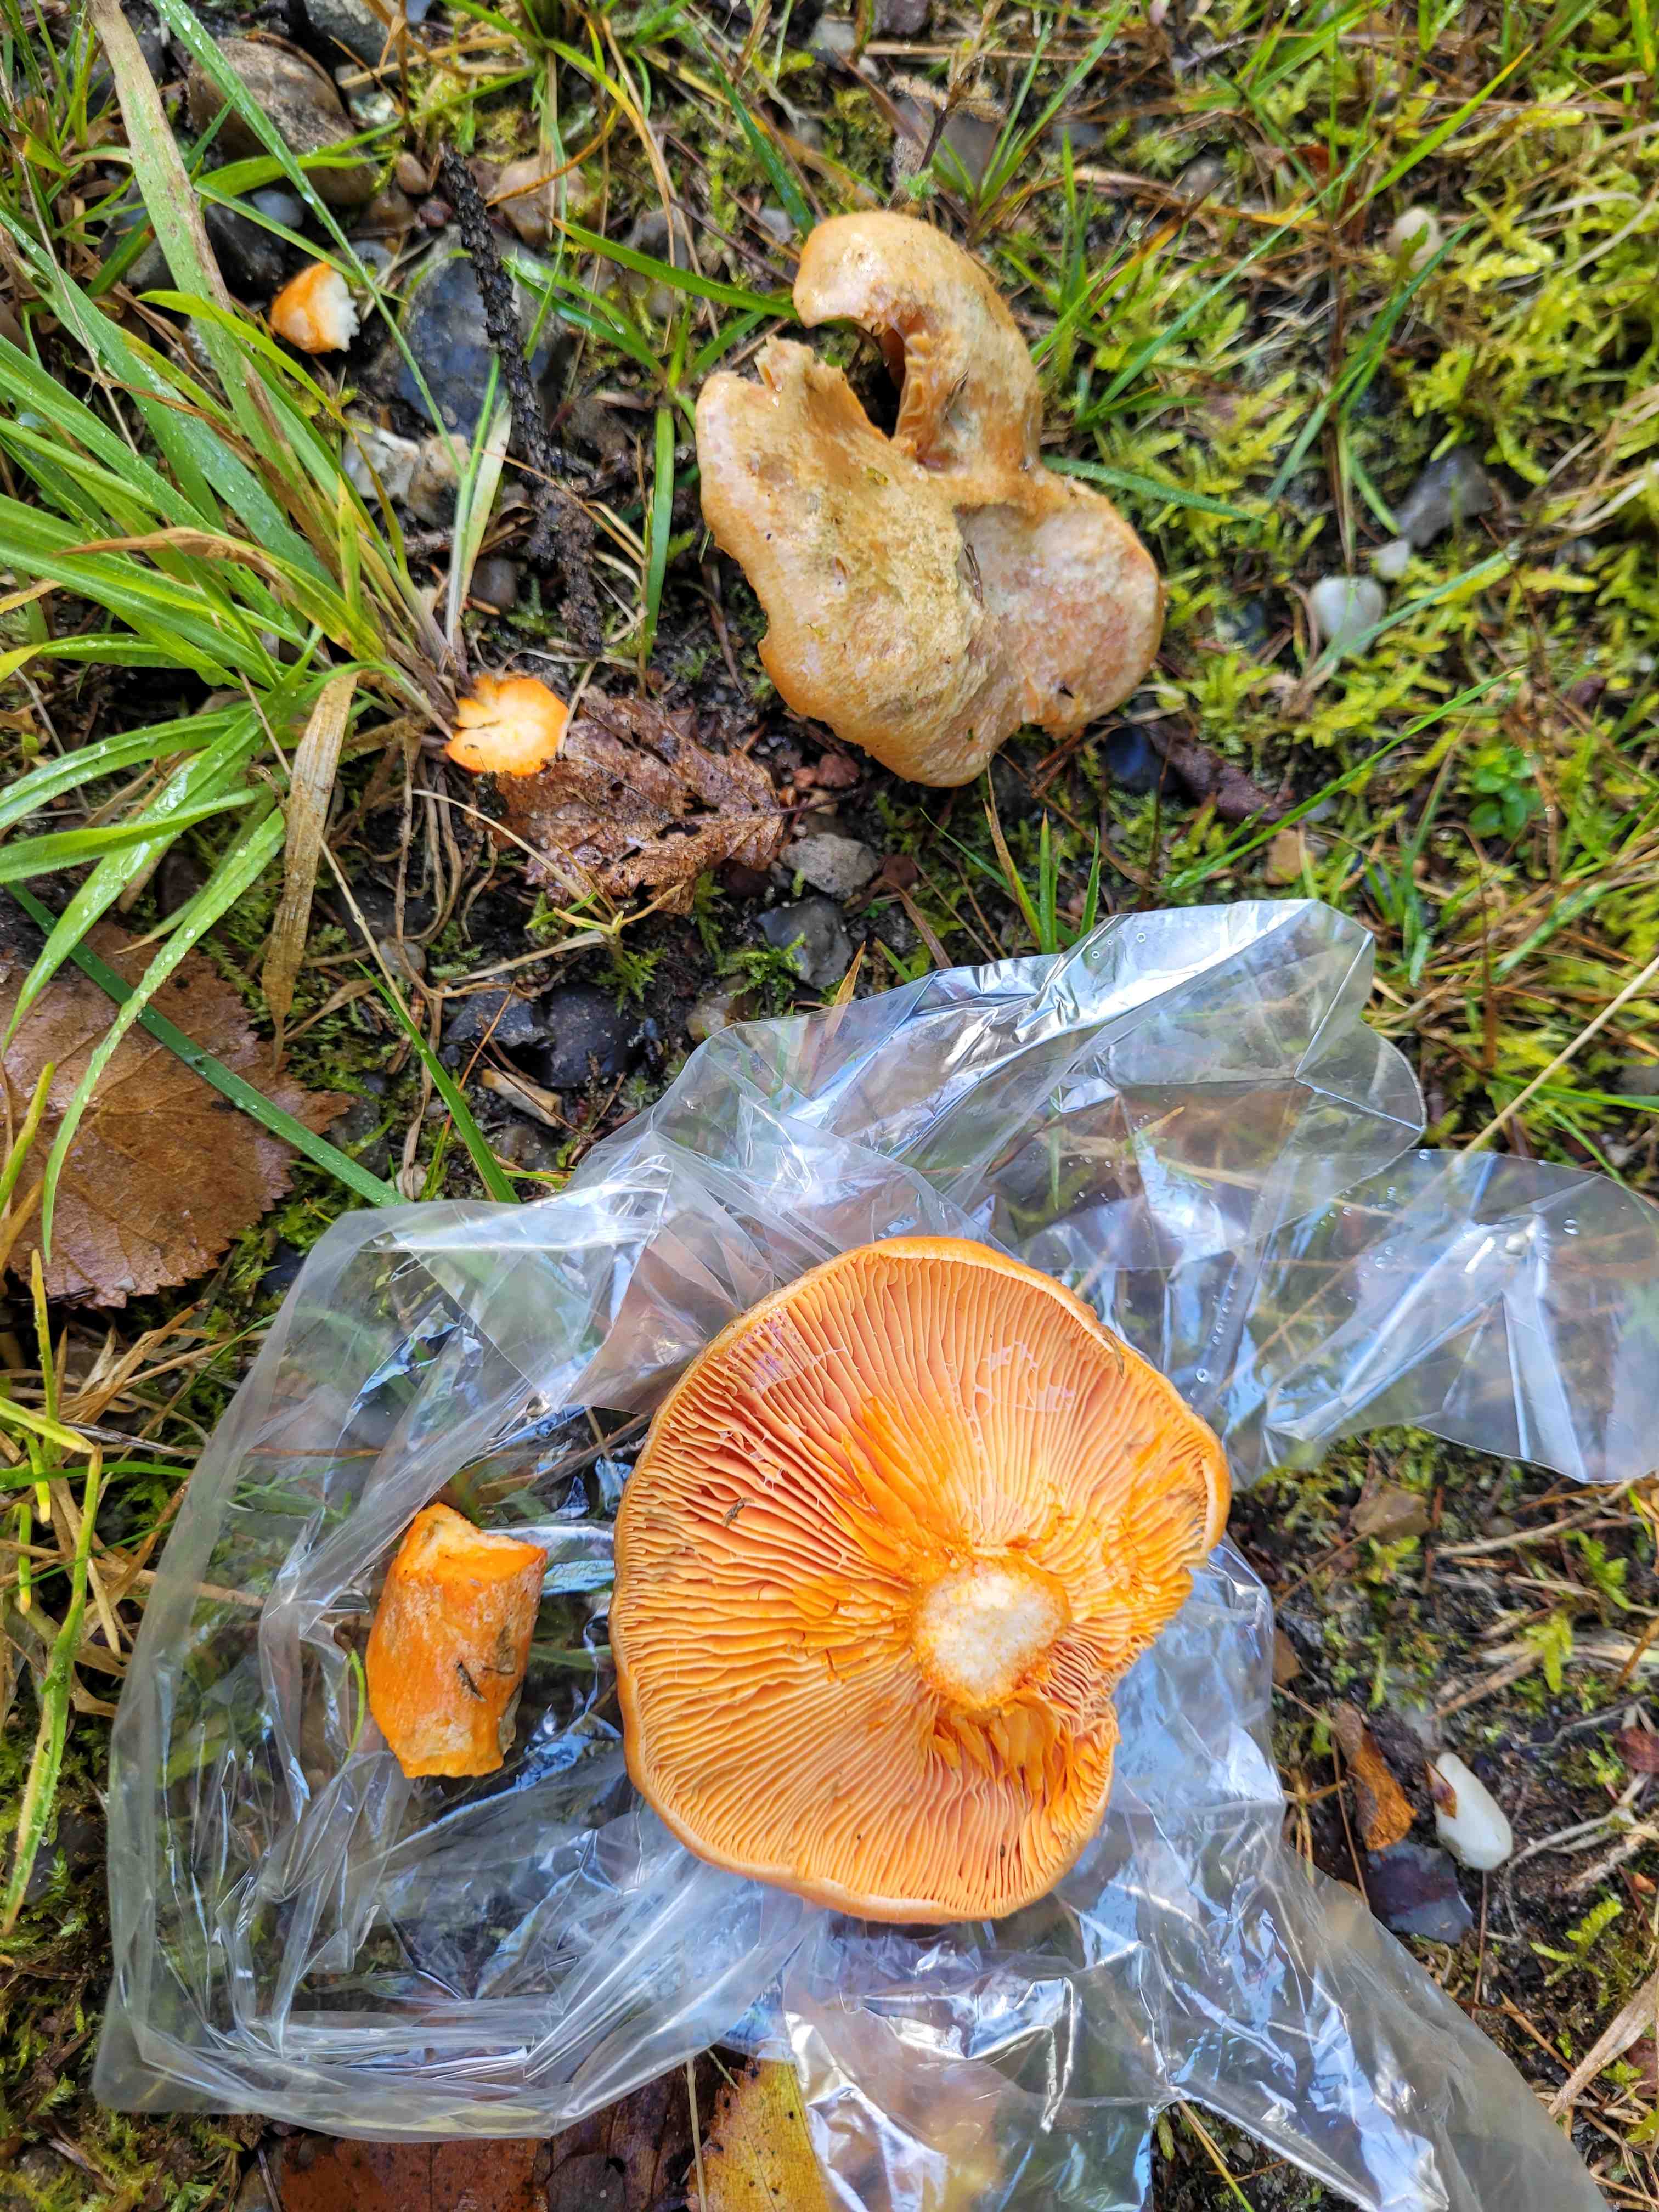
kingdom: Fungi
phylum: Basidiomycota
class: Agaricomycetes
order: Russulales
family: Russulaceae
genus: Lactarius
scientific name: Lactarius deterrimus
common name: gran-mælkehat
